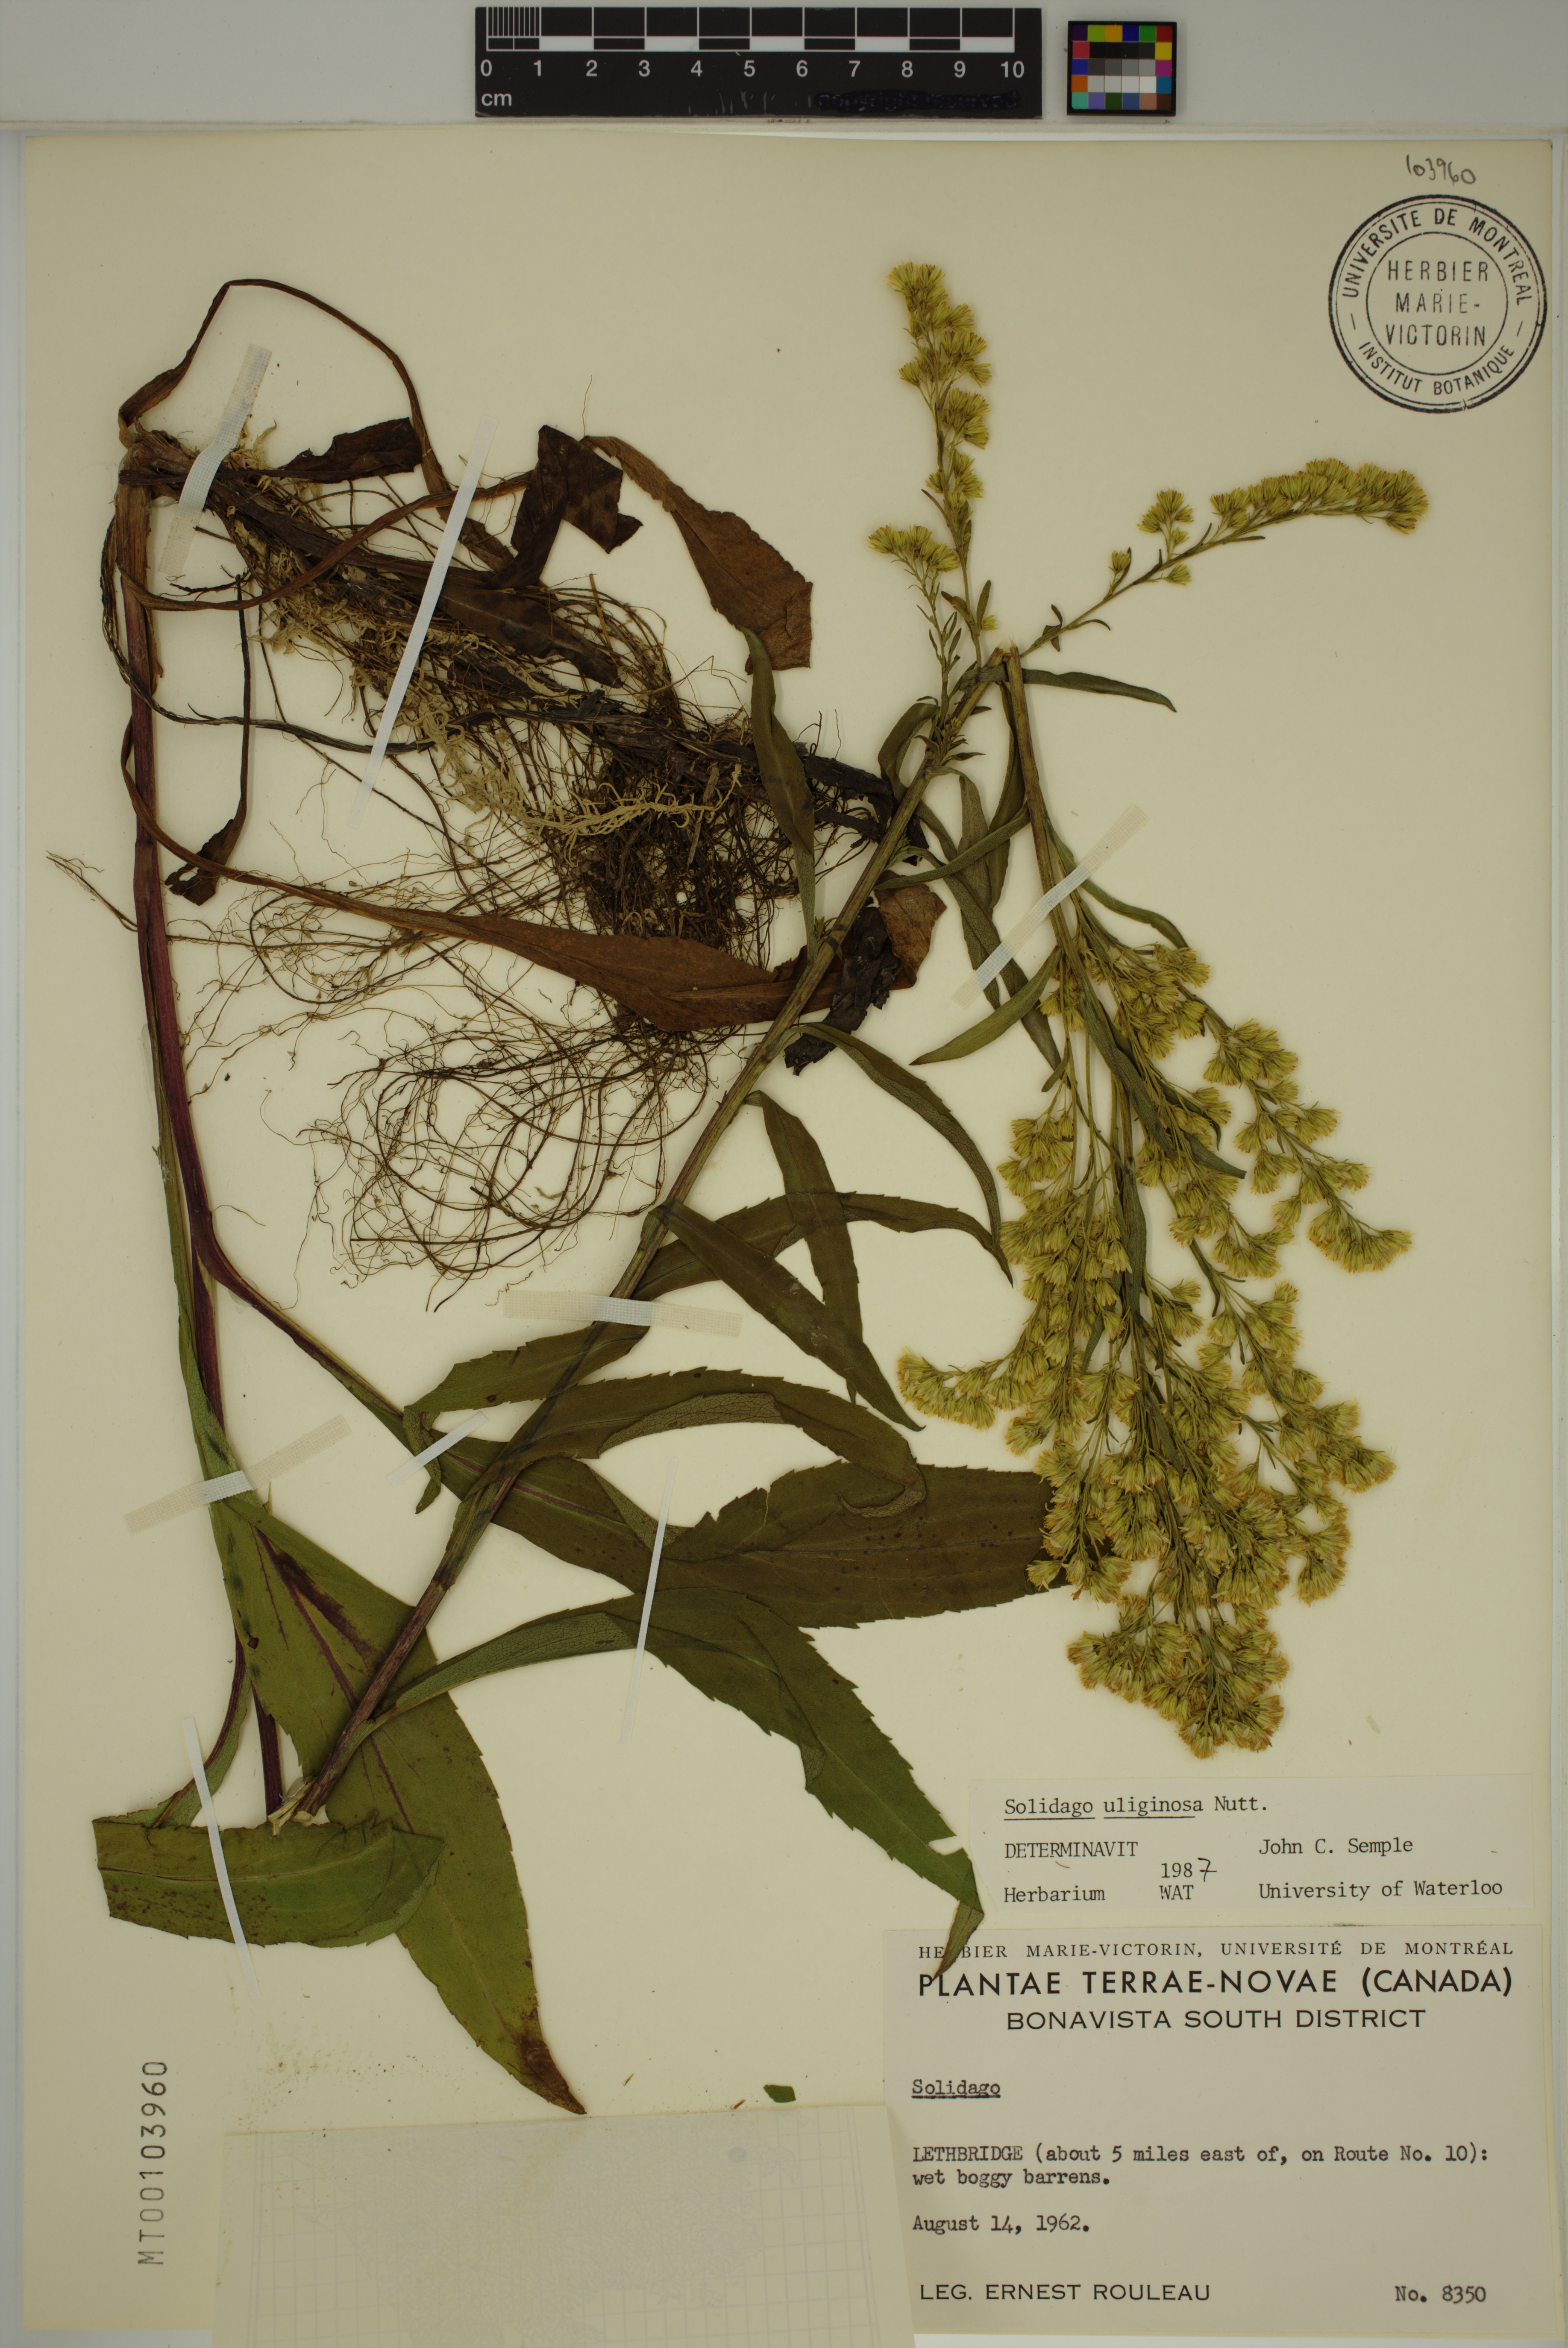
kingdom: Plantae
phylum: Tracheophyta
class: Magnoliopsida
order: Asterales
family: Asteraceae
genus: Solidago
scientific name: Solidago uliginosa
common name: Bog goldenrod
